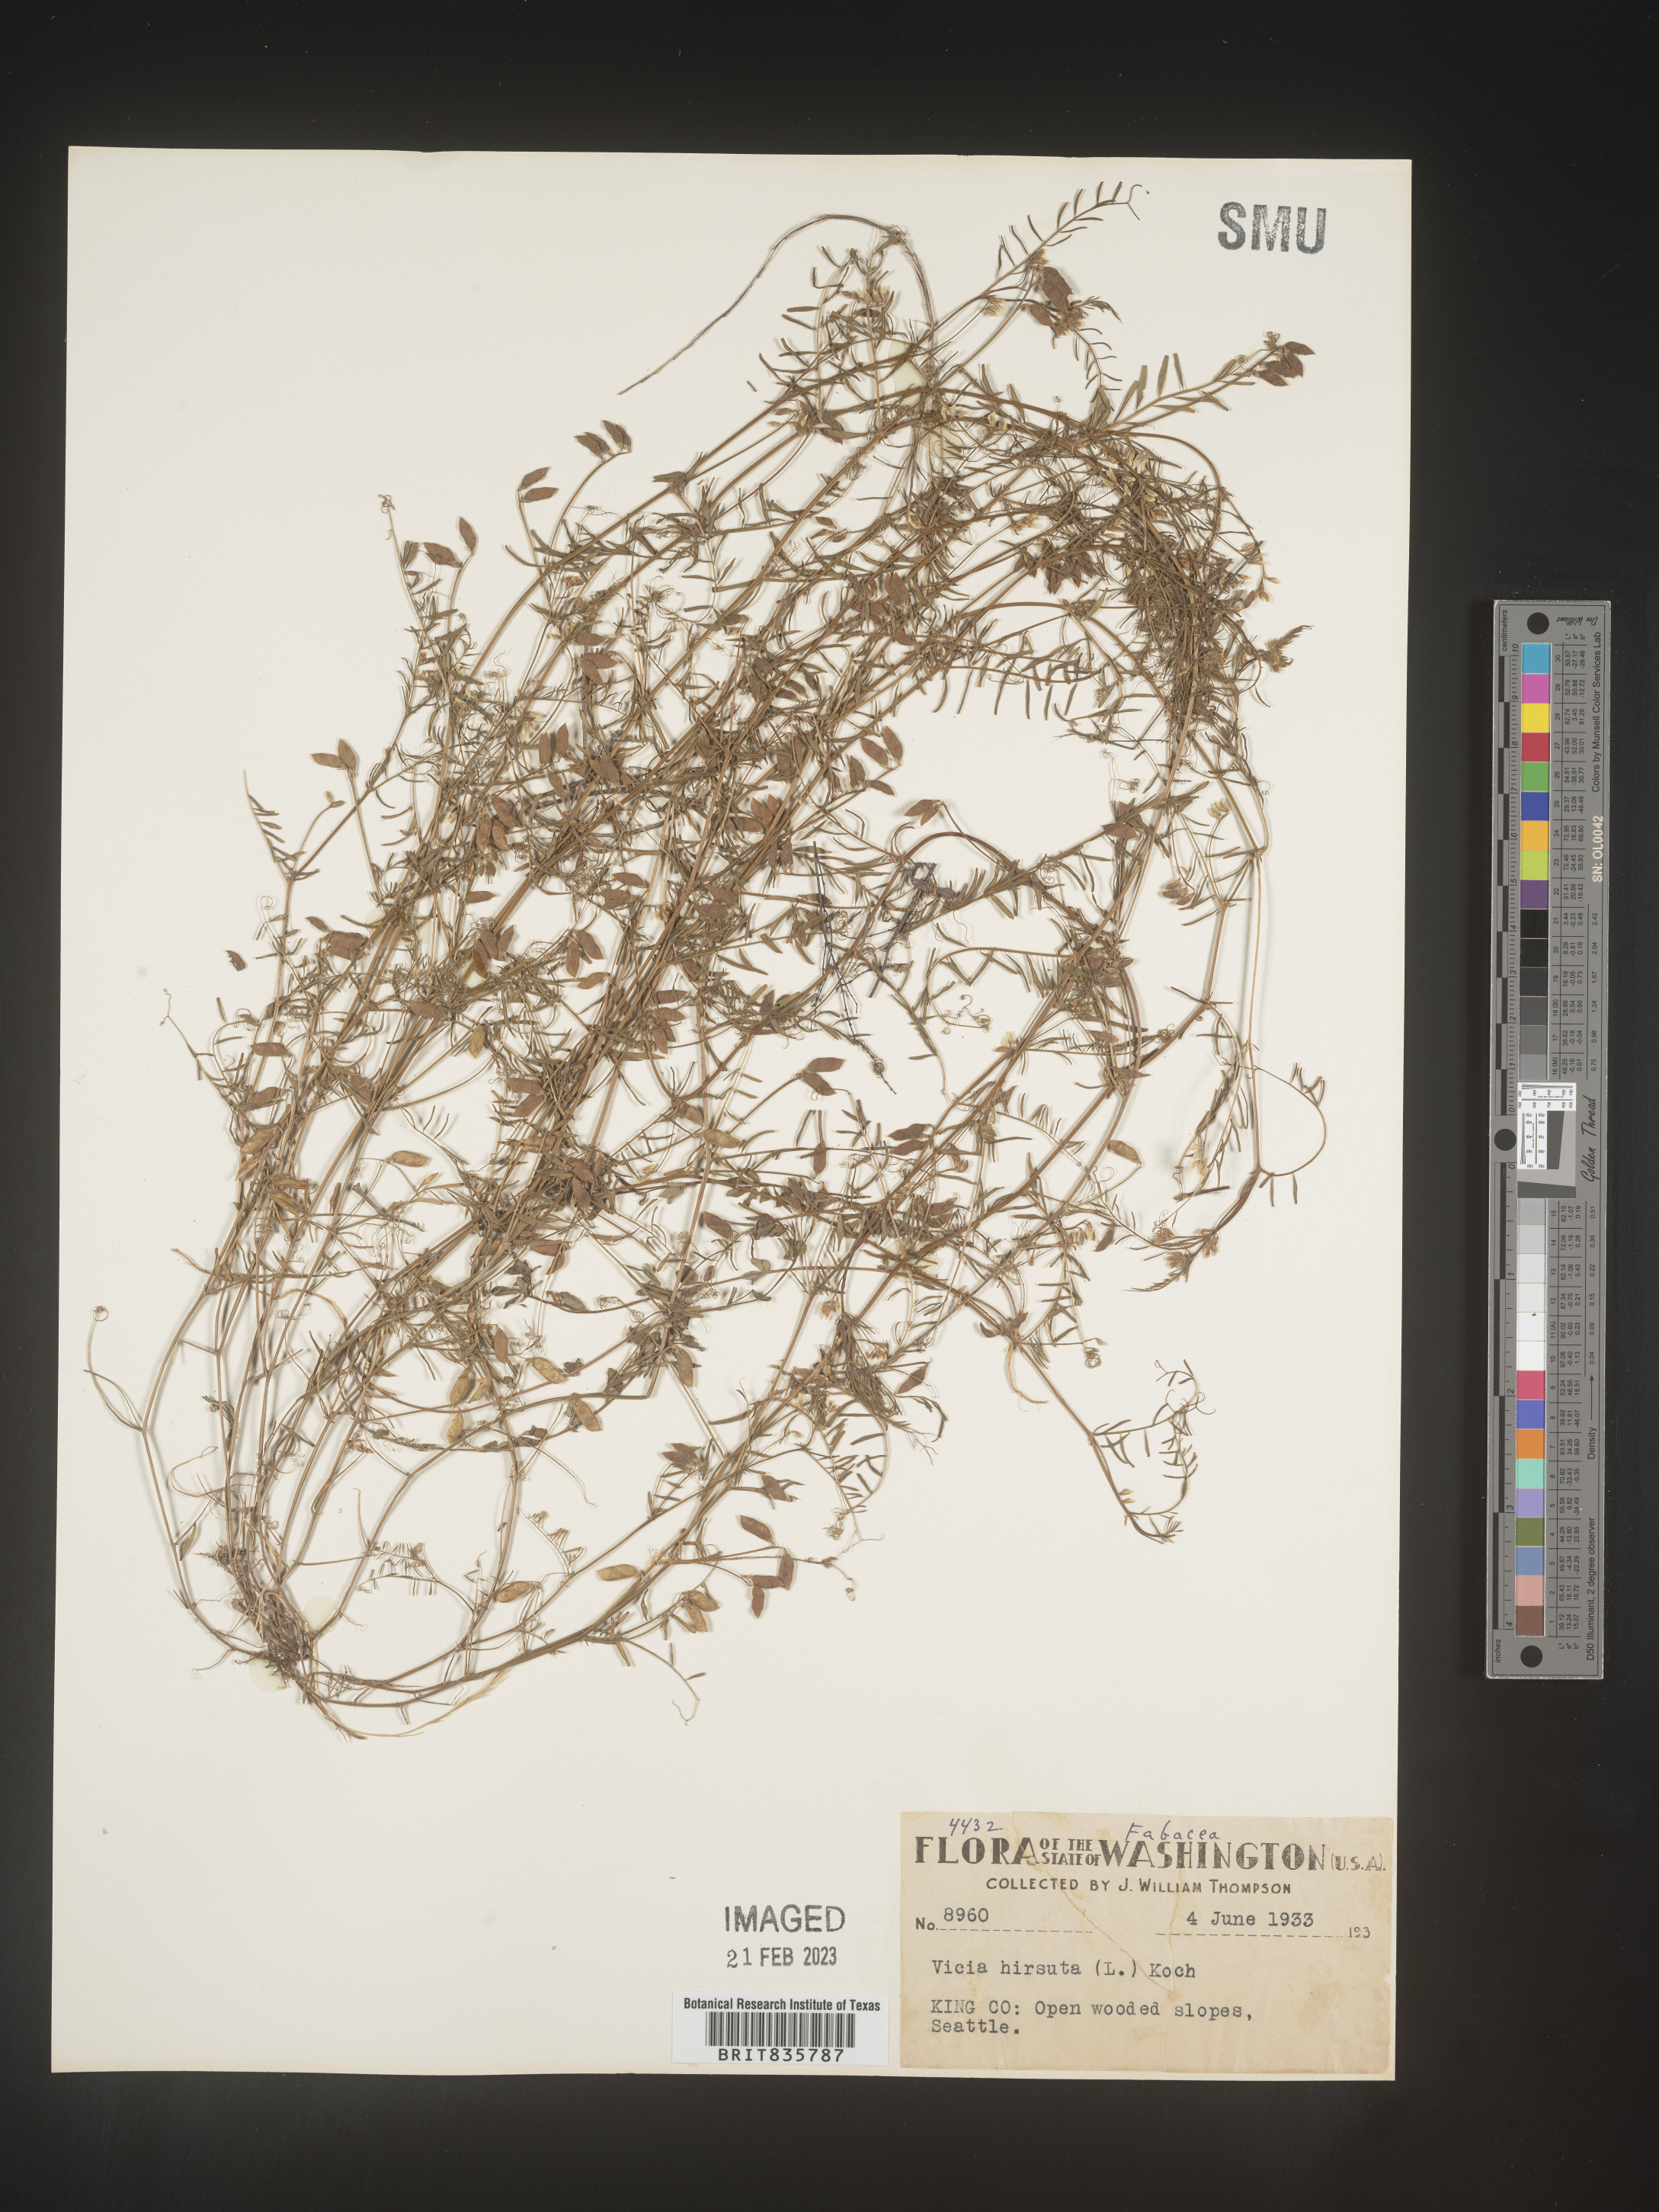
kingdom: Plantae
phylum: Tracheophyta
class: Magnoliopsida
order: Fabales
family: Fabaceae
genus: Vicia
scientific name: Vicia
